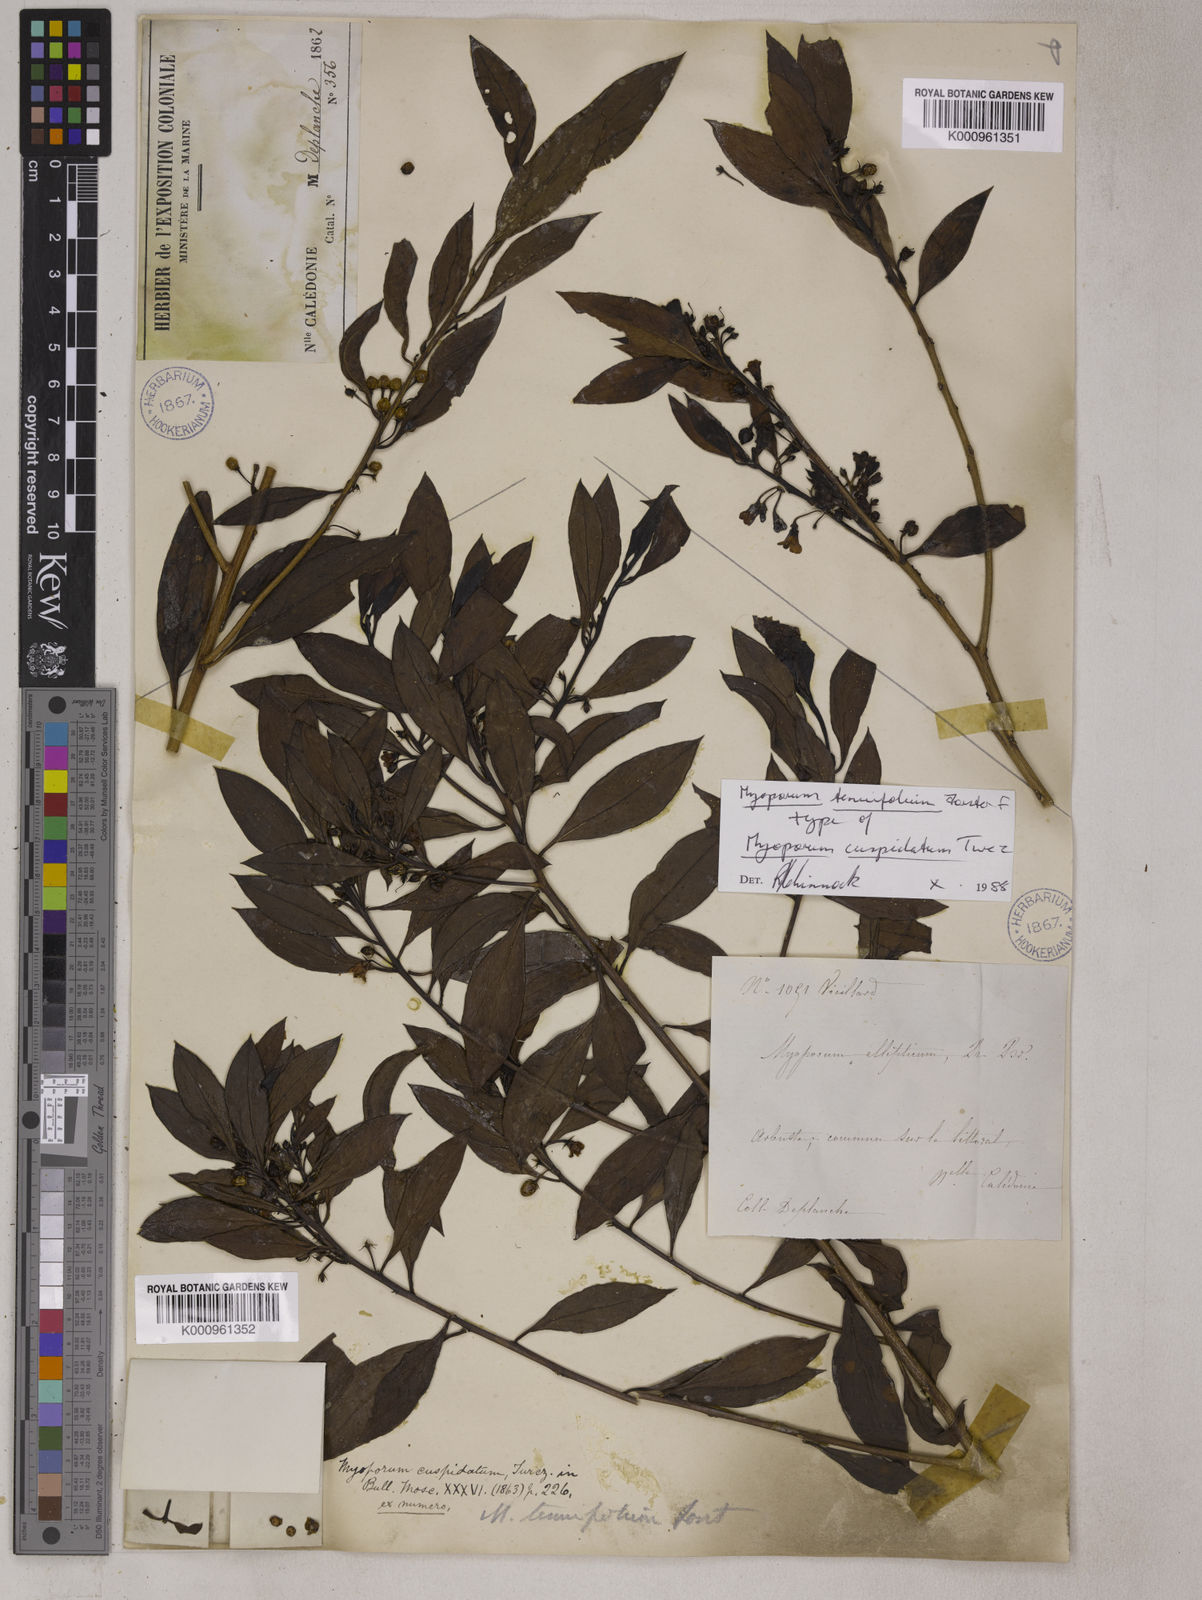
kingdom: Plantae
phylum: Tracheophyta
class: Magnoliopsida
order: Lamiales
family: Scrophulariaceae
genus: Myoporum
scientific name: Myoporum tenuifolium
